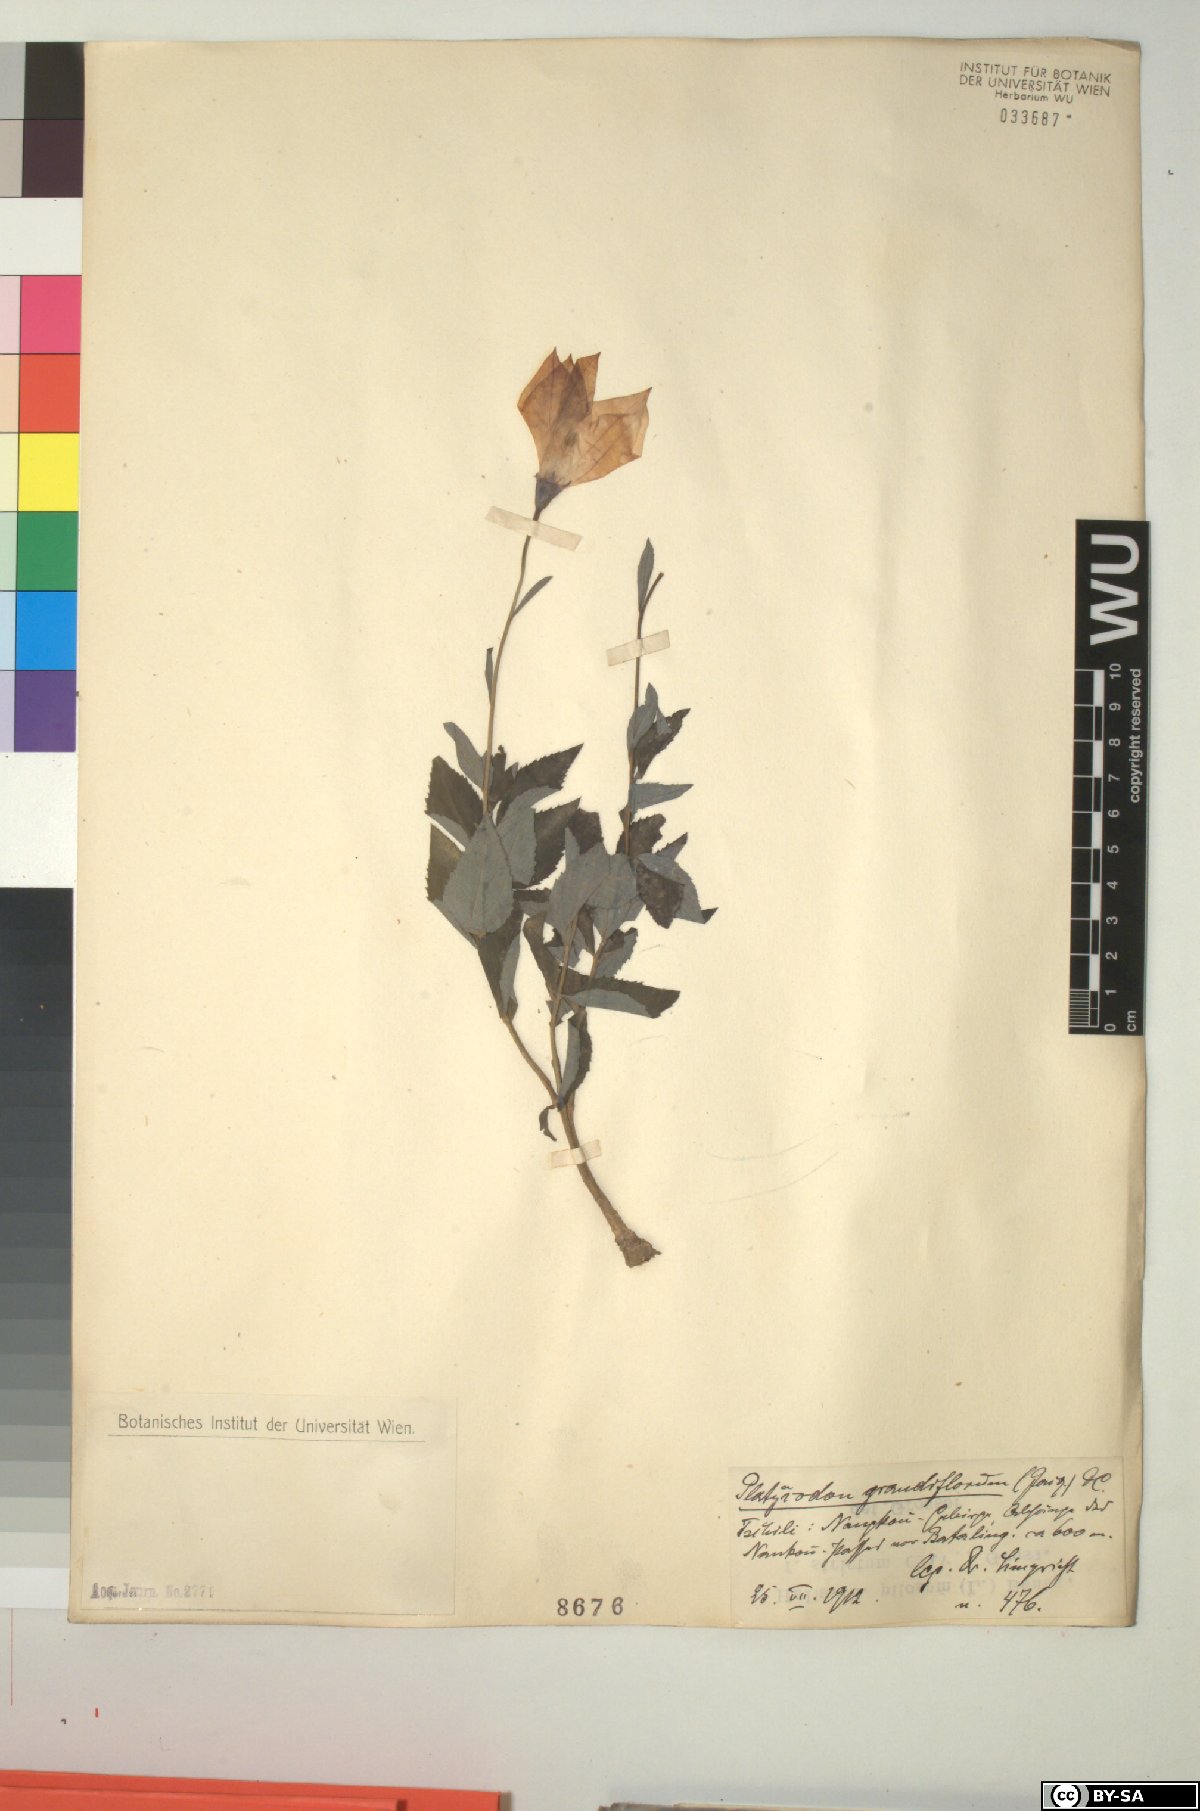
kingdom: Plantae
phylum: Tracheophyta
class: Magnoliopsida
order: Asterales
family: Campanulaceae
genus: Platycodon
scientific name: Platycodon grandiflorus
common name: Balloon-flower
